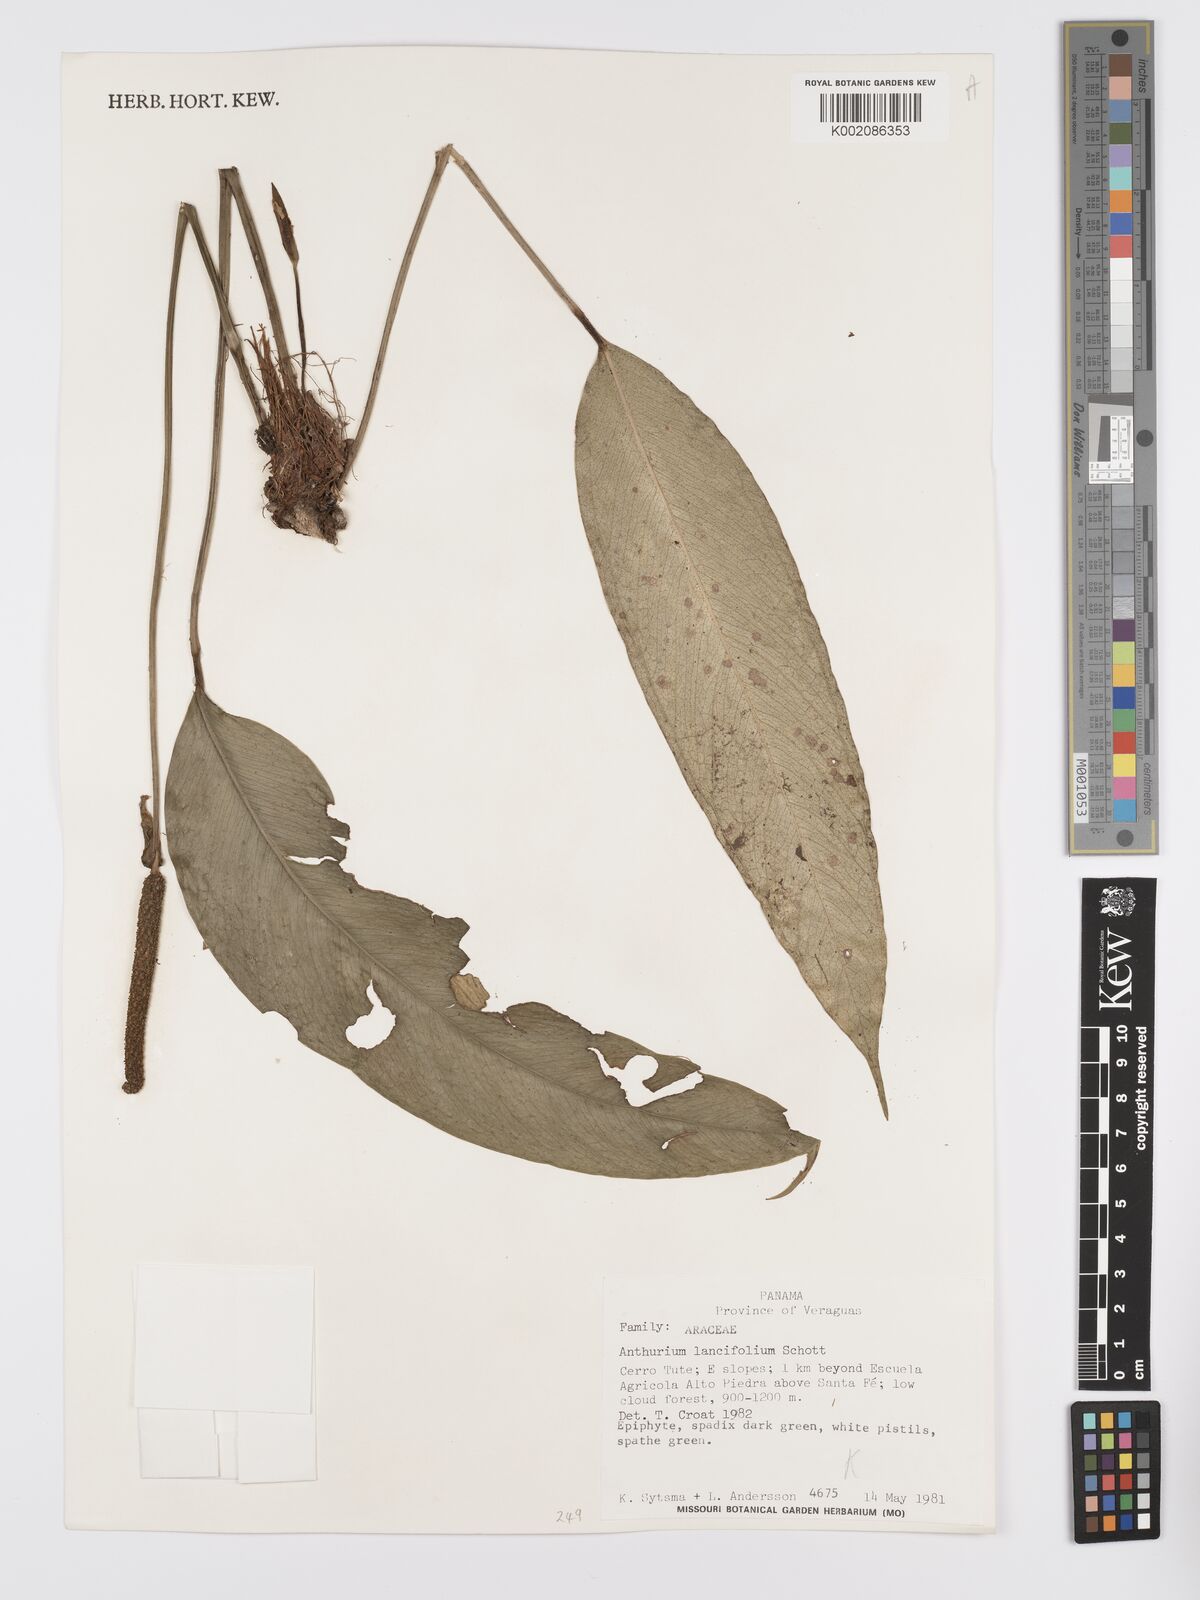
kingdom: Plantae
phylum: Tracheophyta
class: Liliopsida
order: Alismatales
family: Araceae
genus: Anthurium
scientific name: Anthurium lancifolium
